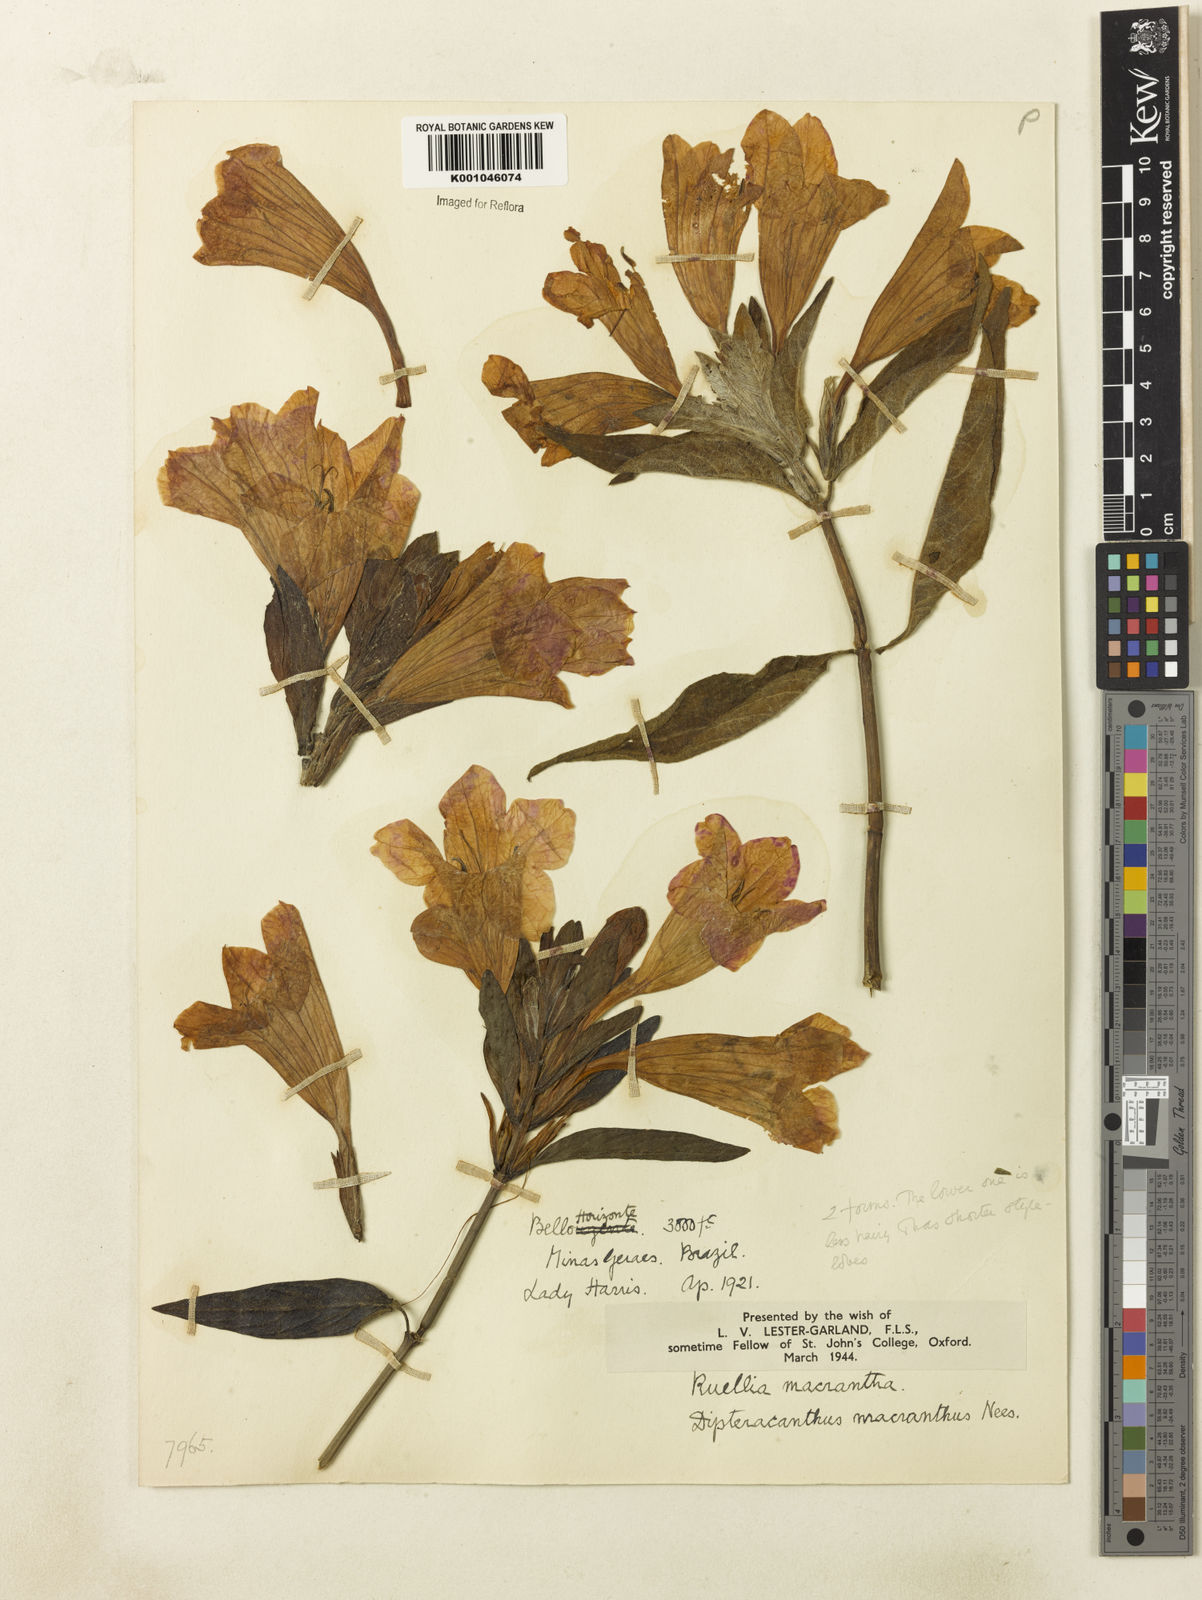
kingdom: Plantae
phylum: Tracheophyta
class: Magnoliopsida
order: Lamiales
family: Acanthaceae
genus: Ruellia
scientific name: Ruellia
